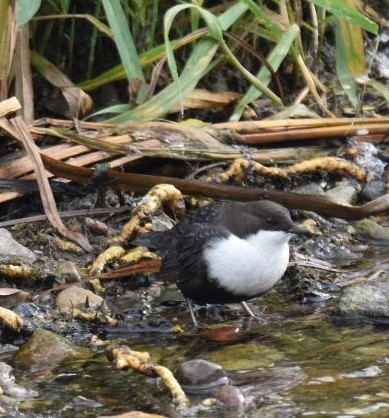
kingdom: Animalia
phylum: Chordata
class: Aves
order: Passeriformes
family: Cinclidae
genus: Cinclus
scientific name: Cinclus cinclus
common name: Vandstær
